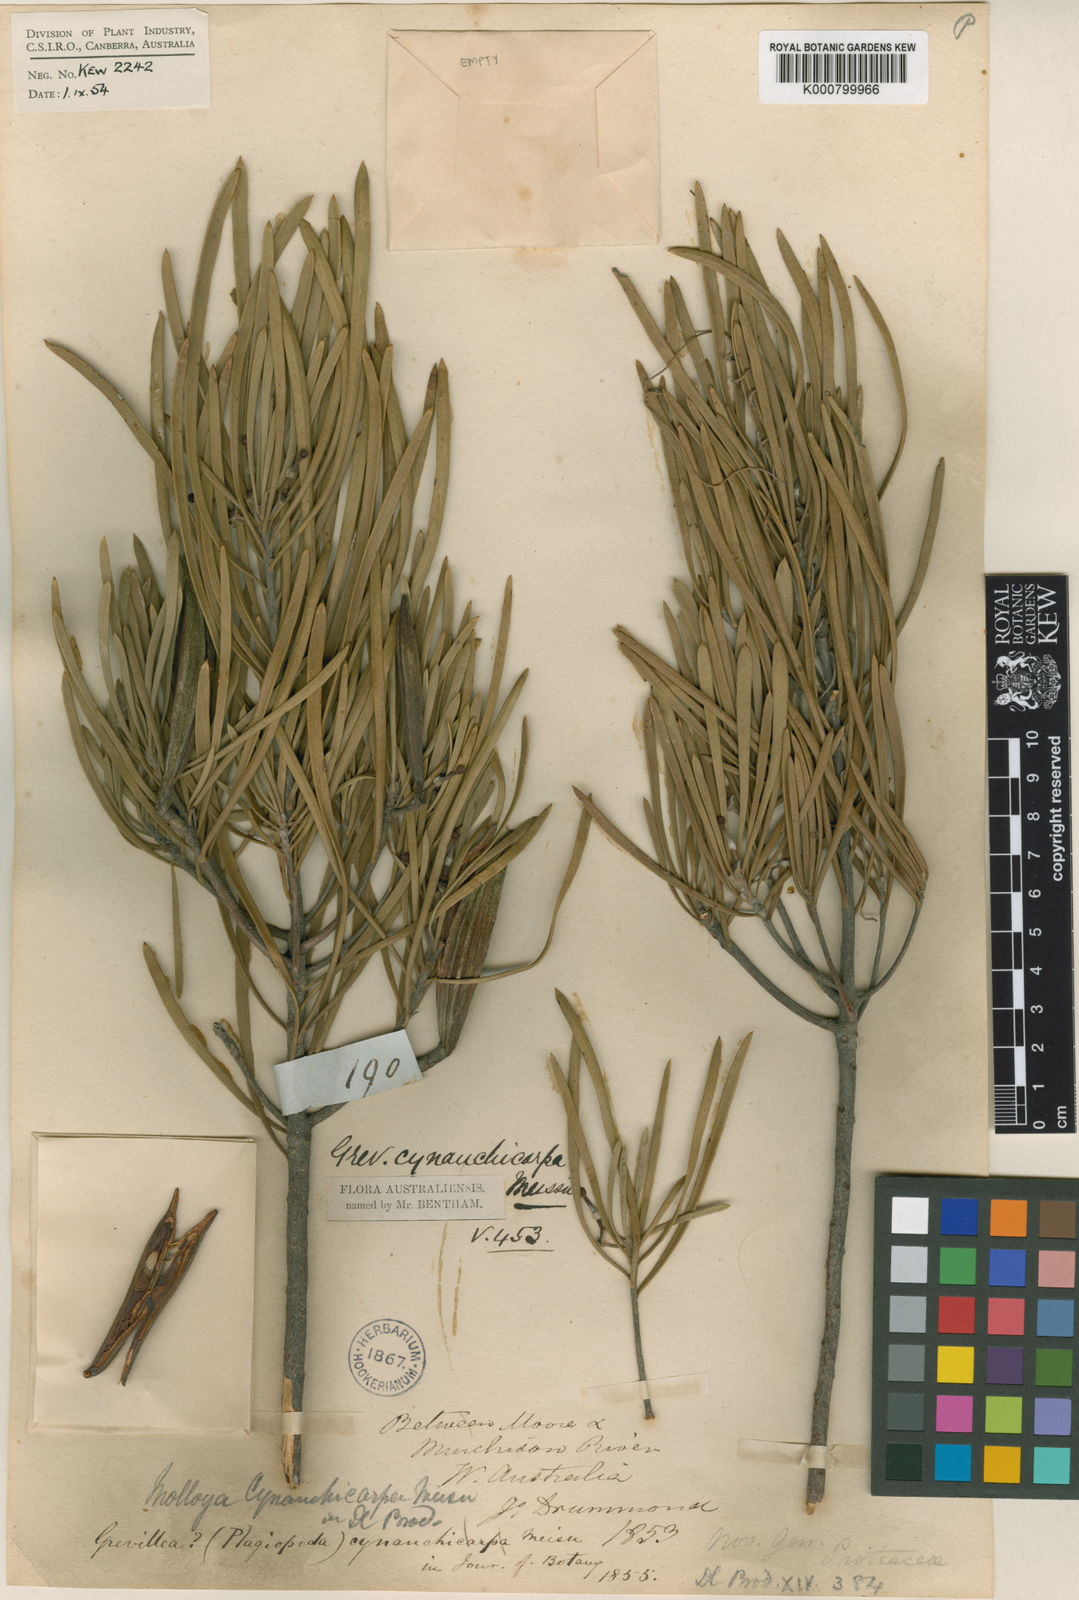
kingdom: Plantae
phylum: Tracheophyta
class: Magnoliopsida
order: Proteales
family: Proteaceae
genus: Strangea
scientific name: Strangea cynanchocarpa
